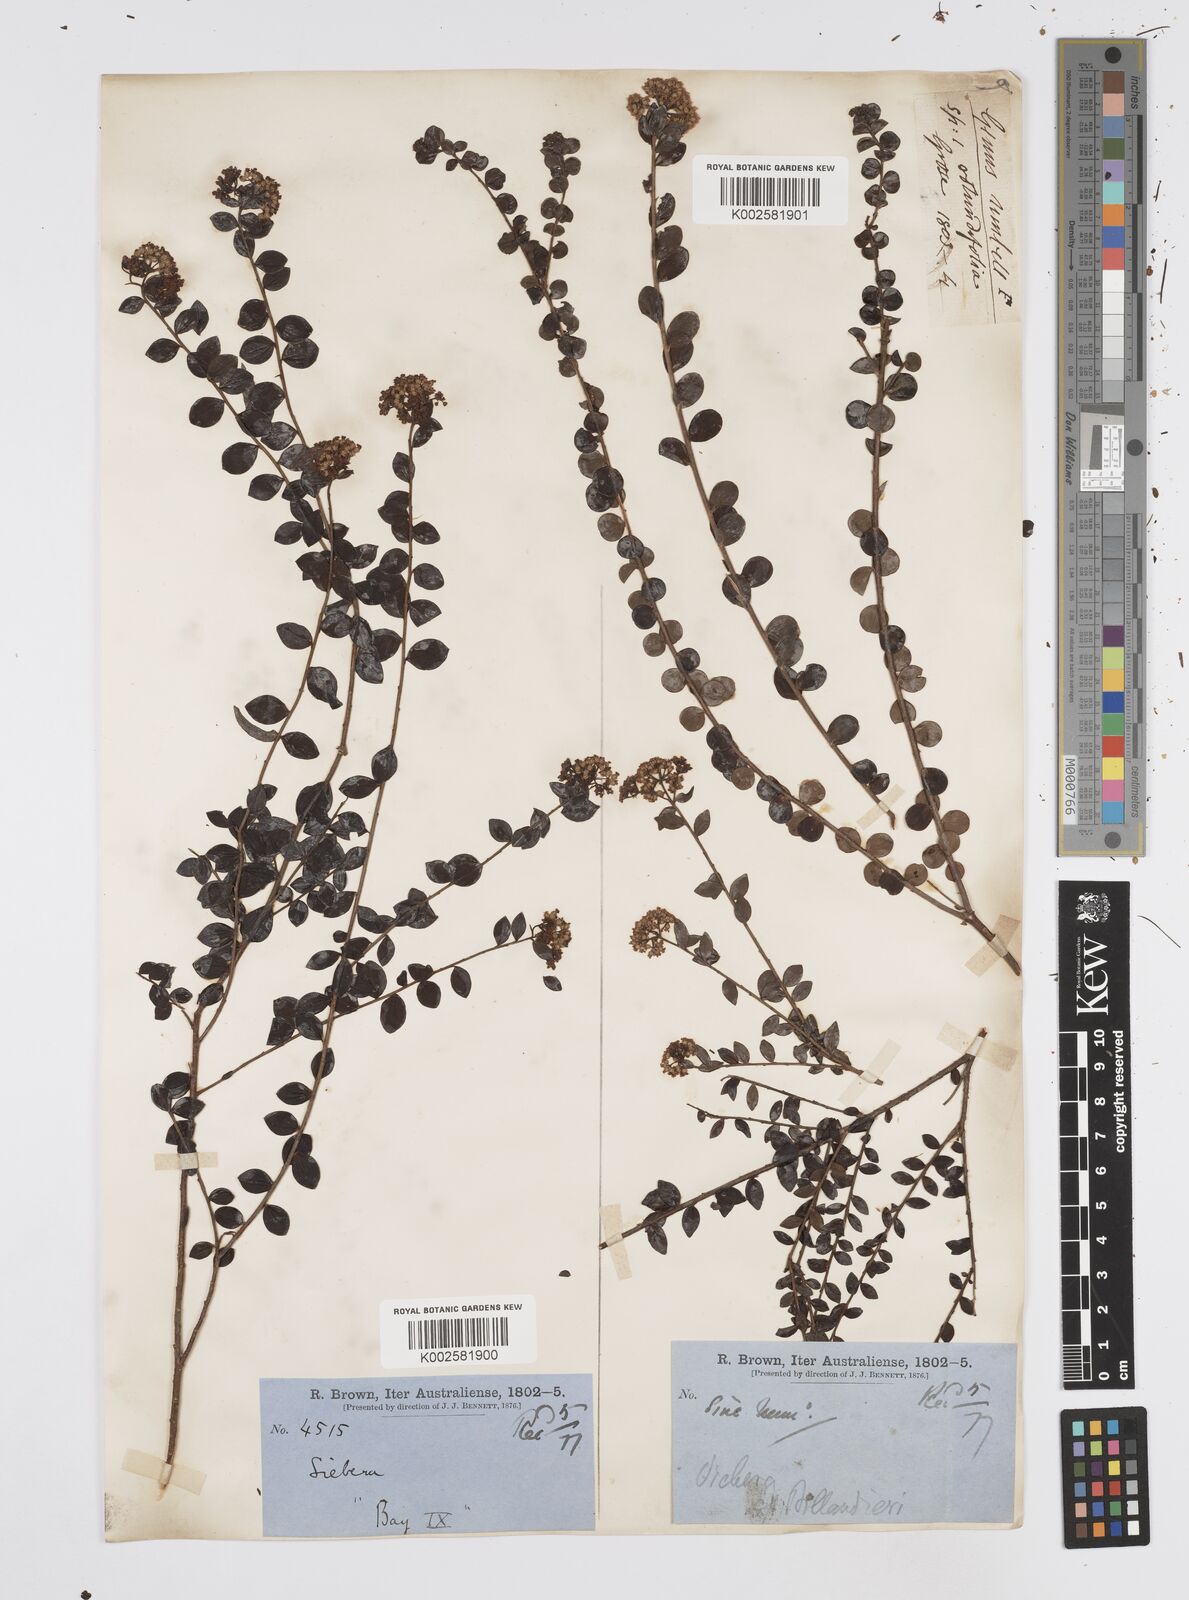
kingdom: Plantae
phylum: Tracheophyta
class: Magnoliopsida
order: Apiales
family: Apiaceae
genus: Platysace
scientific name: Platysace lanceolata
